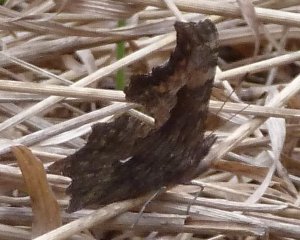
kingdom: Animalia
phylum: Arthropoda
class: Insecta
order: Lepidoptera
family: Nymphalidae
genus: Polygonia
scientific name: Polygonia progne
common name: Gray Comma
